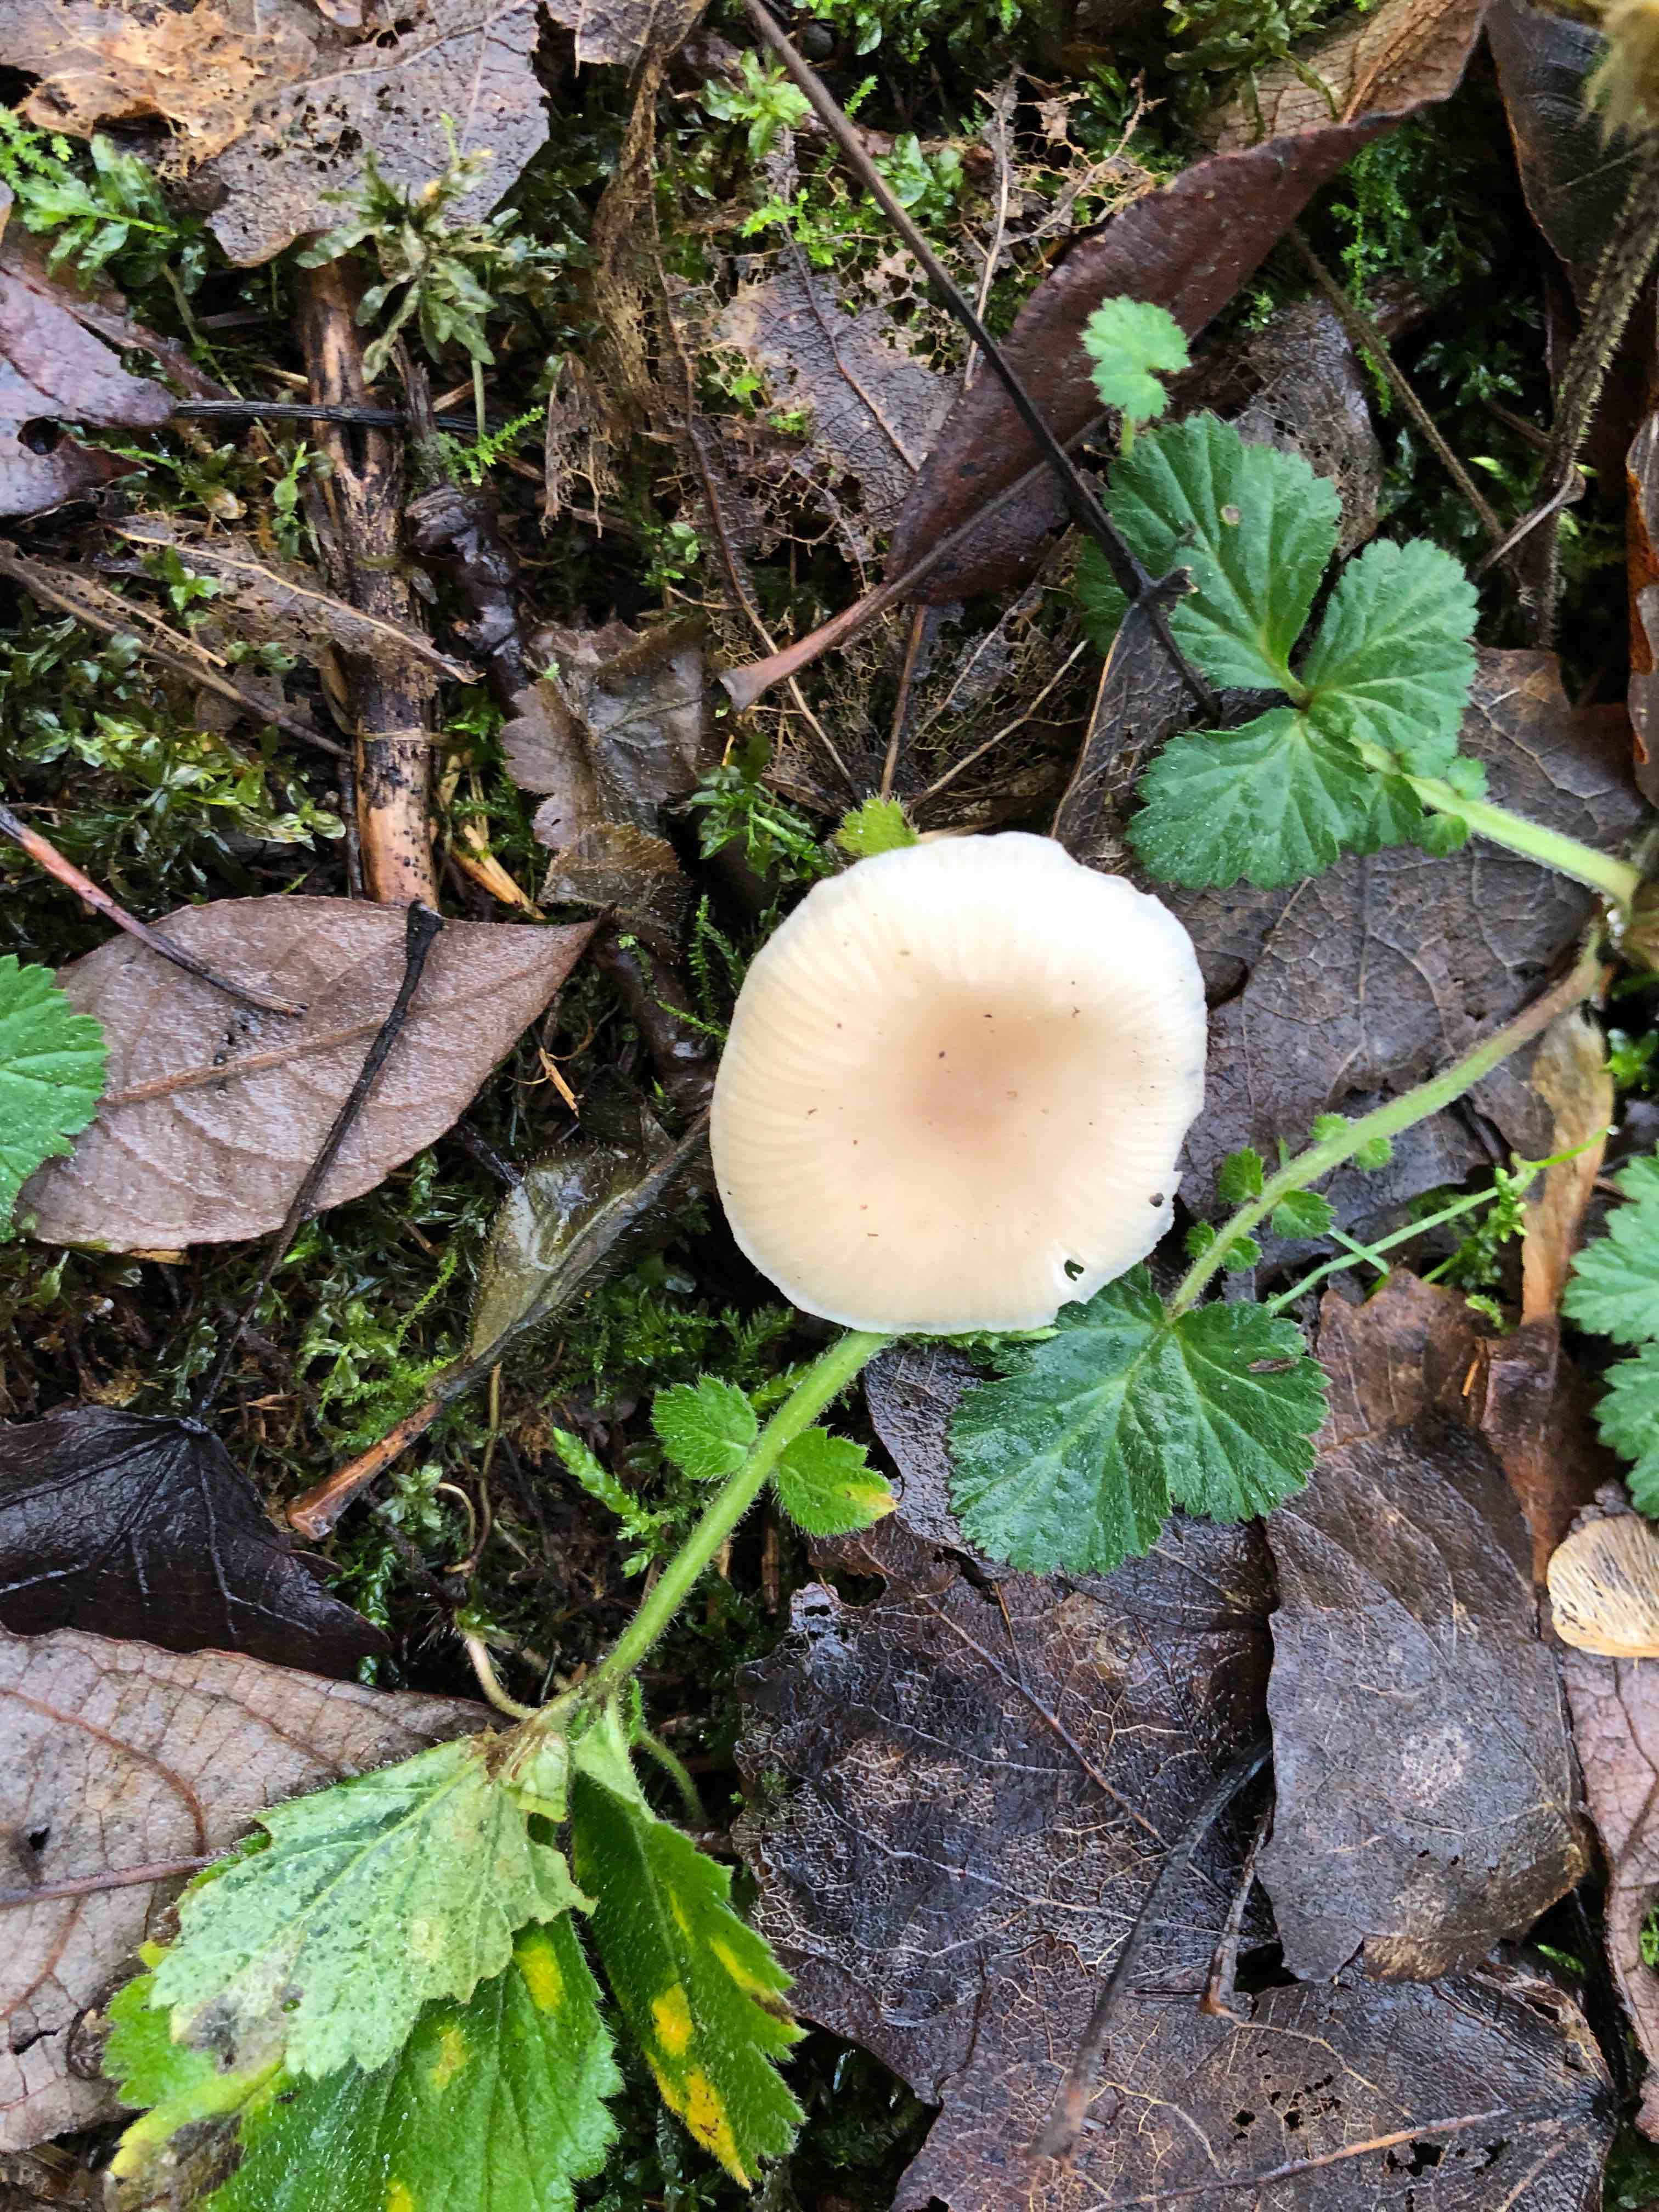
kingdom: Fungi
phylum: Basidiomycota
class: Agaricomycetes
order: Agaricales
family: Tricholomataceae
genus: Clitocybe
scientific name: Clitocybe fragrans
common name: vellugtende tragthat
